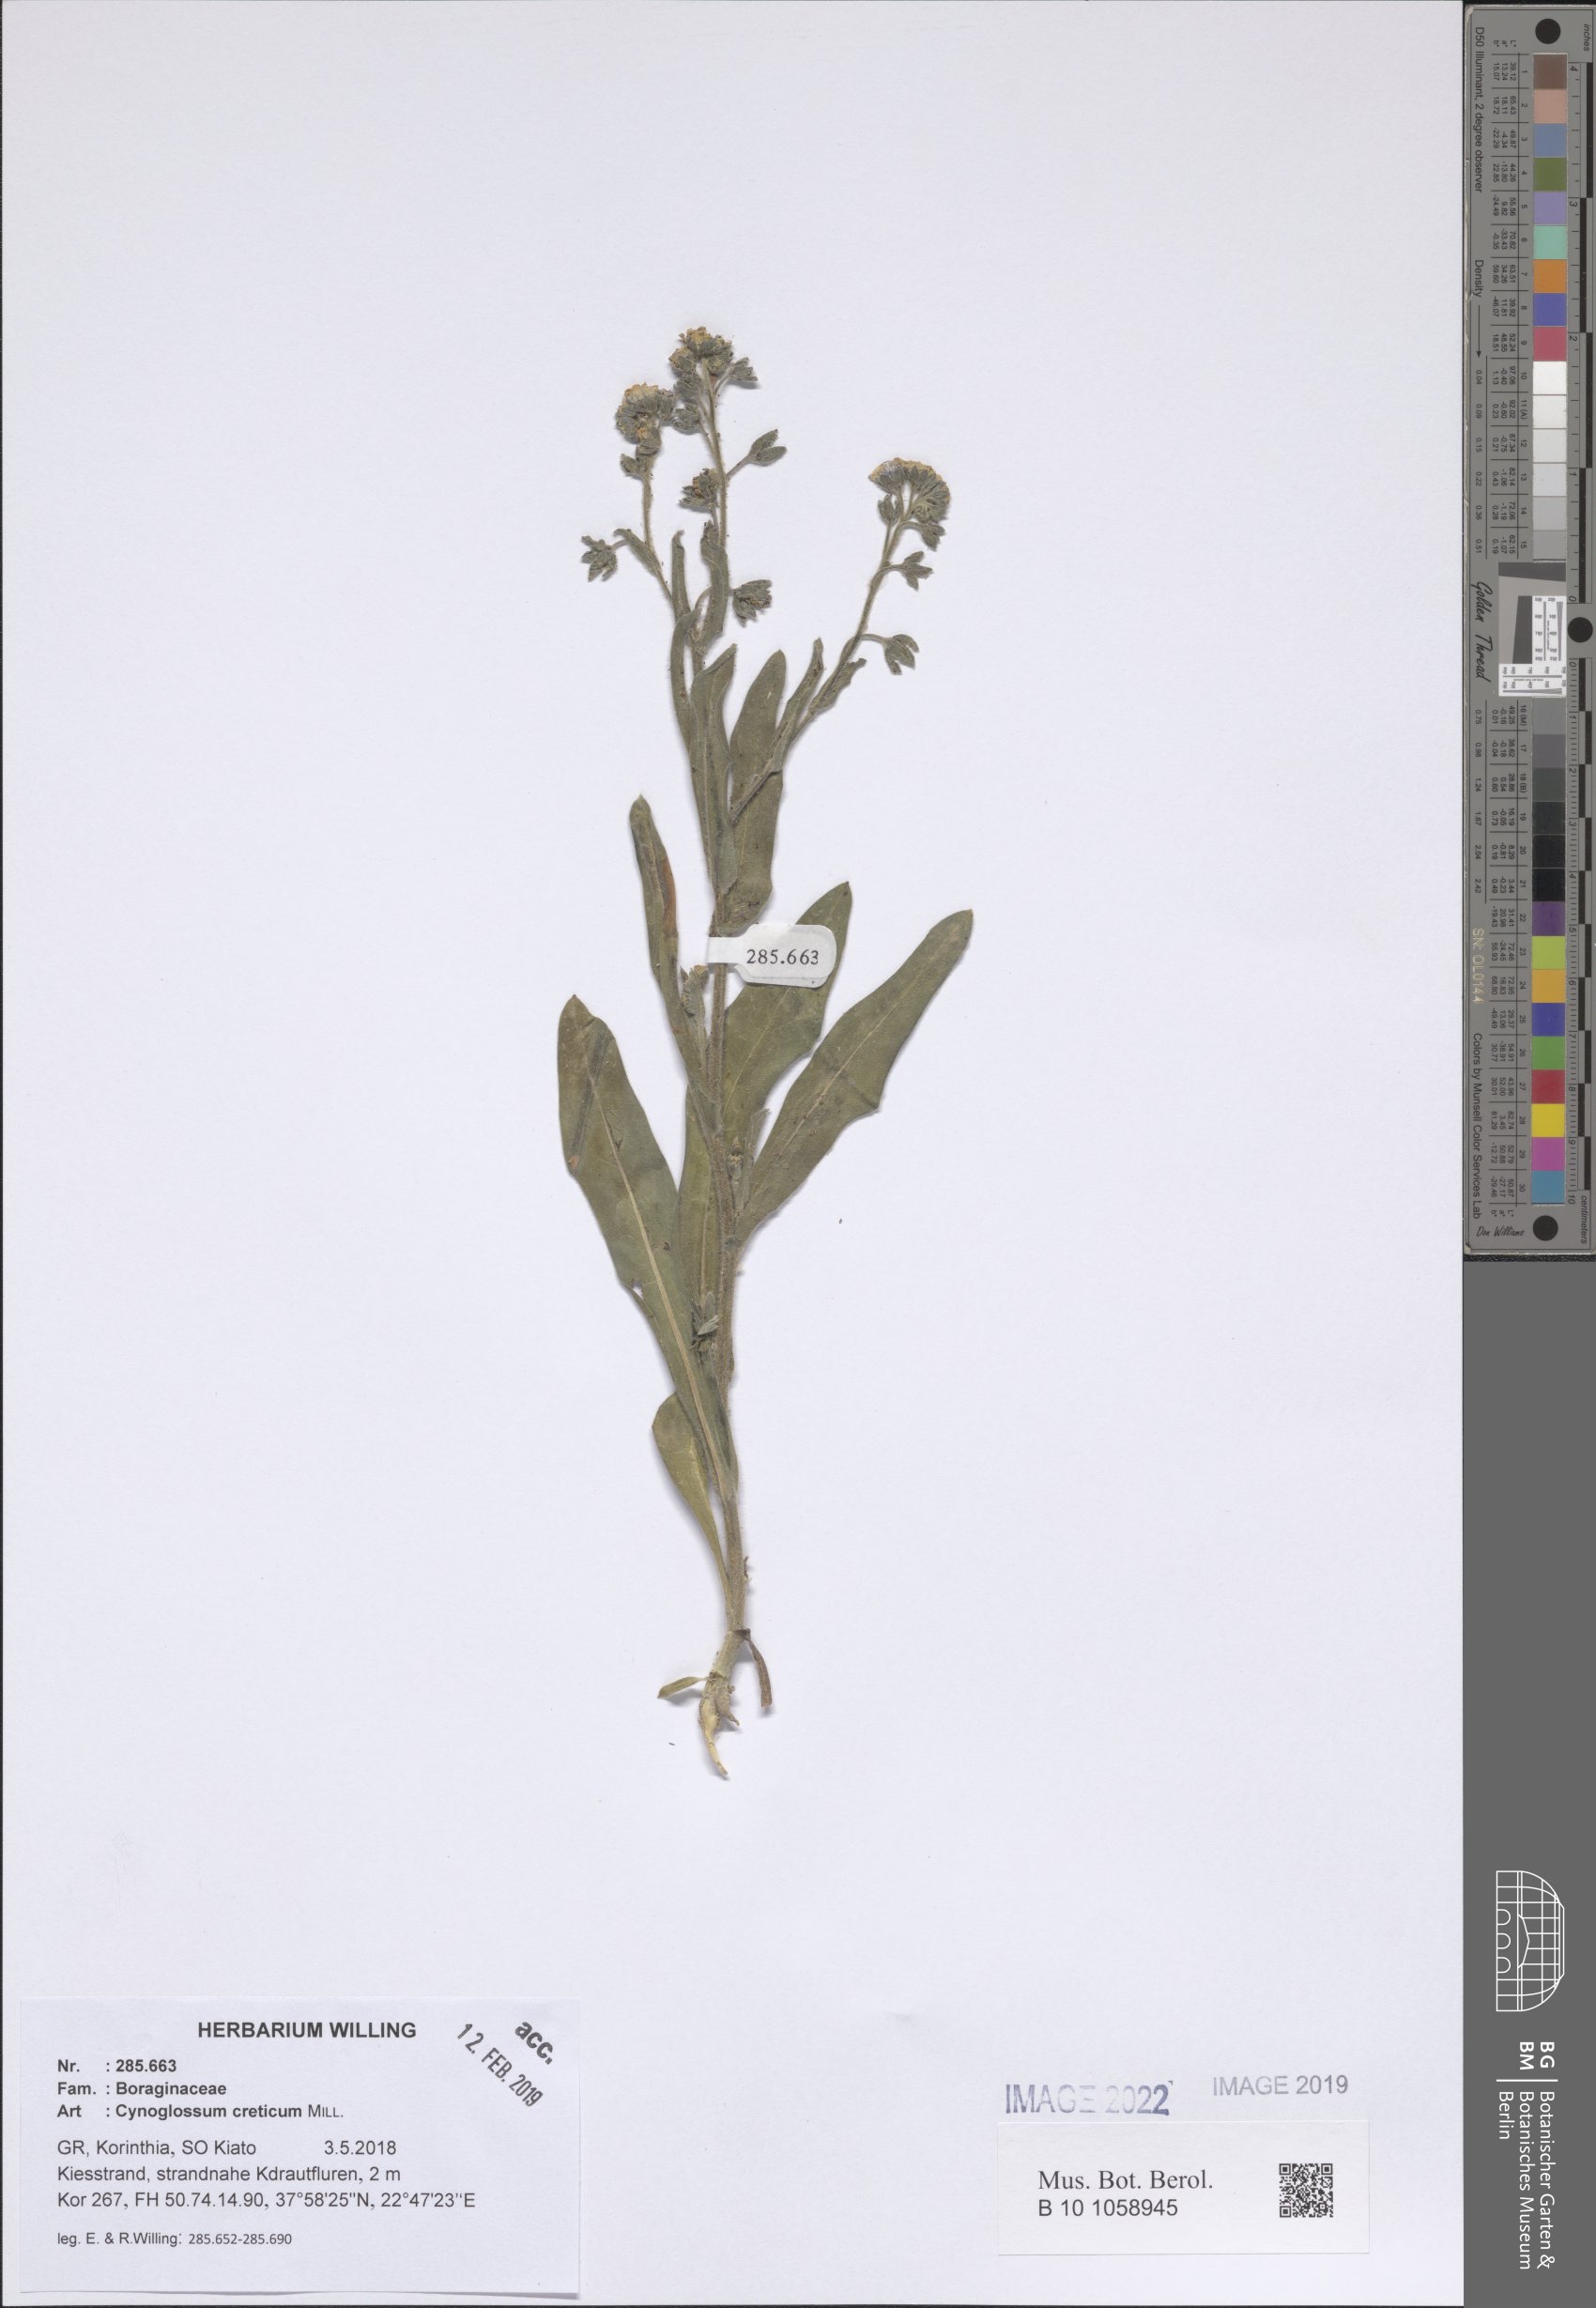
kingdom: Plantae
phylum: Tracheophyta
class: Magnoliopsida
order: Boraginales
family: Boraginaceae
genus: Cynoglossum
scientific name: Cynoglossum creticum
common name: Blue hound's tongue
